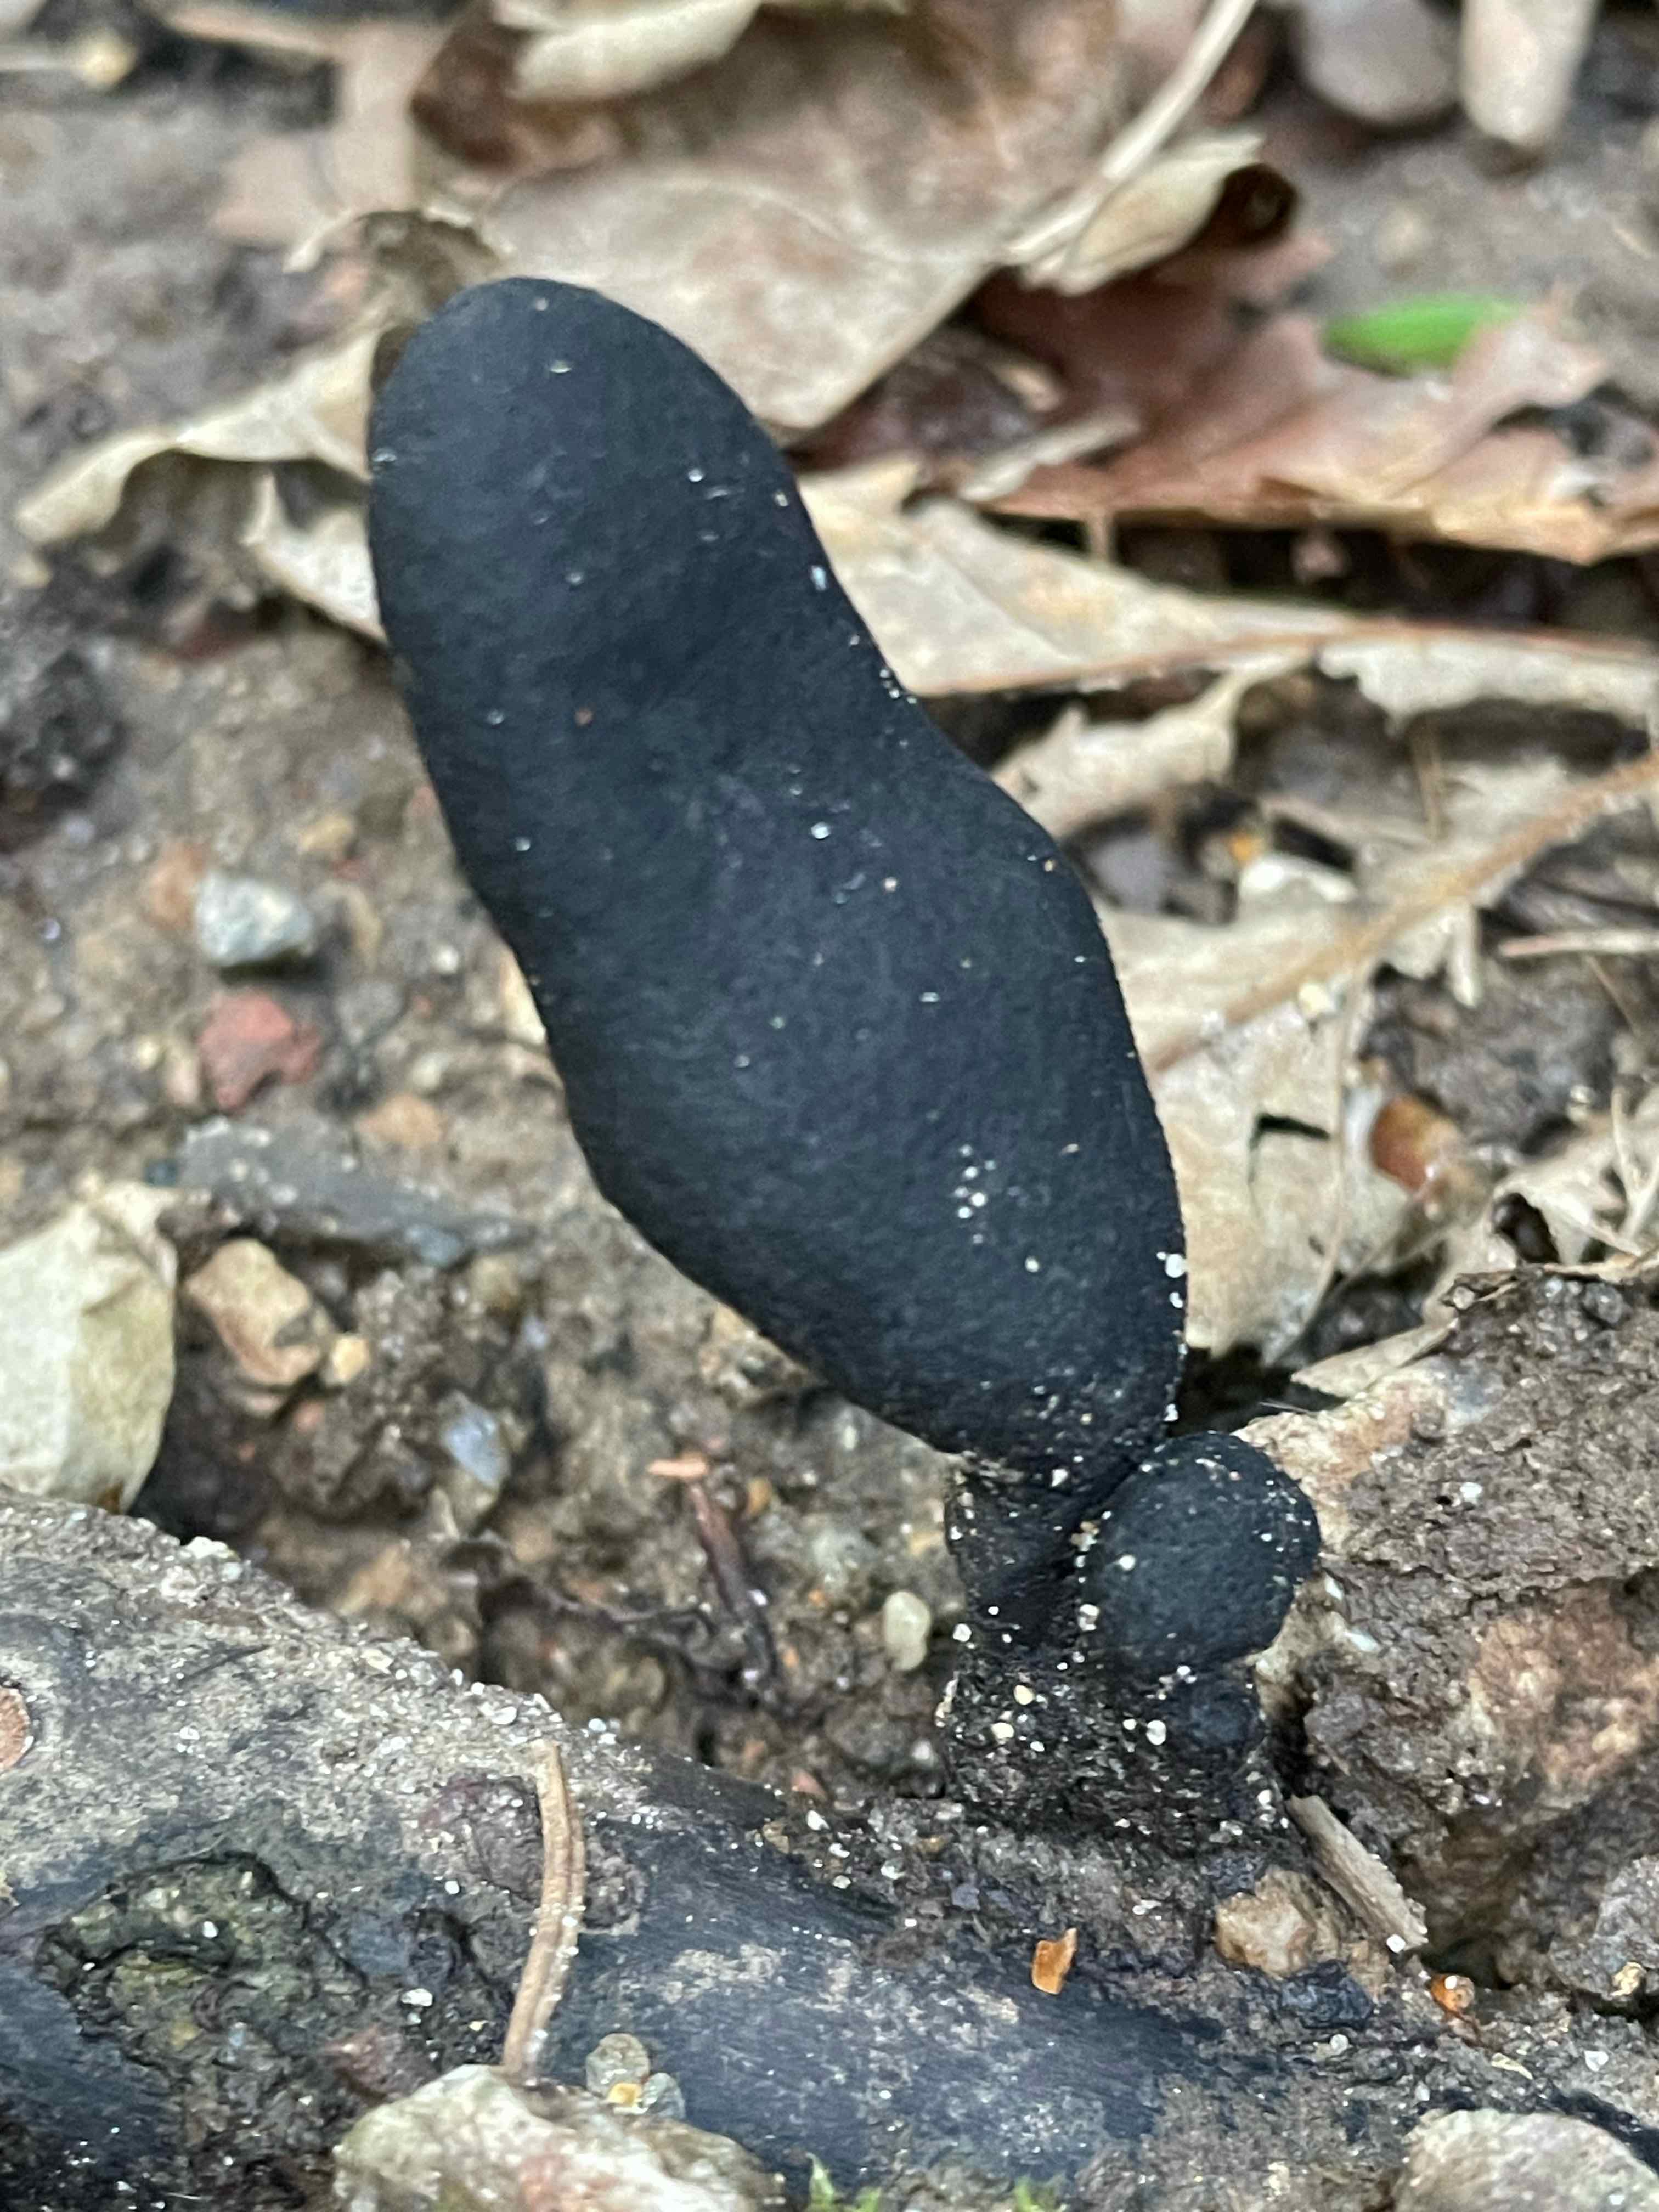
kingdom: Fungi
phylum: Ascomycota
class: Sordariomycetes
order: Xylariales
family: Xylariaceae
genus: Xylaria
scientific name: Xylaria polymorpha
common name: kølle-stødsvamp
